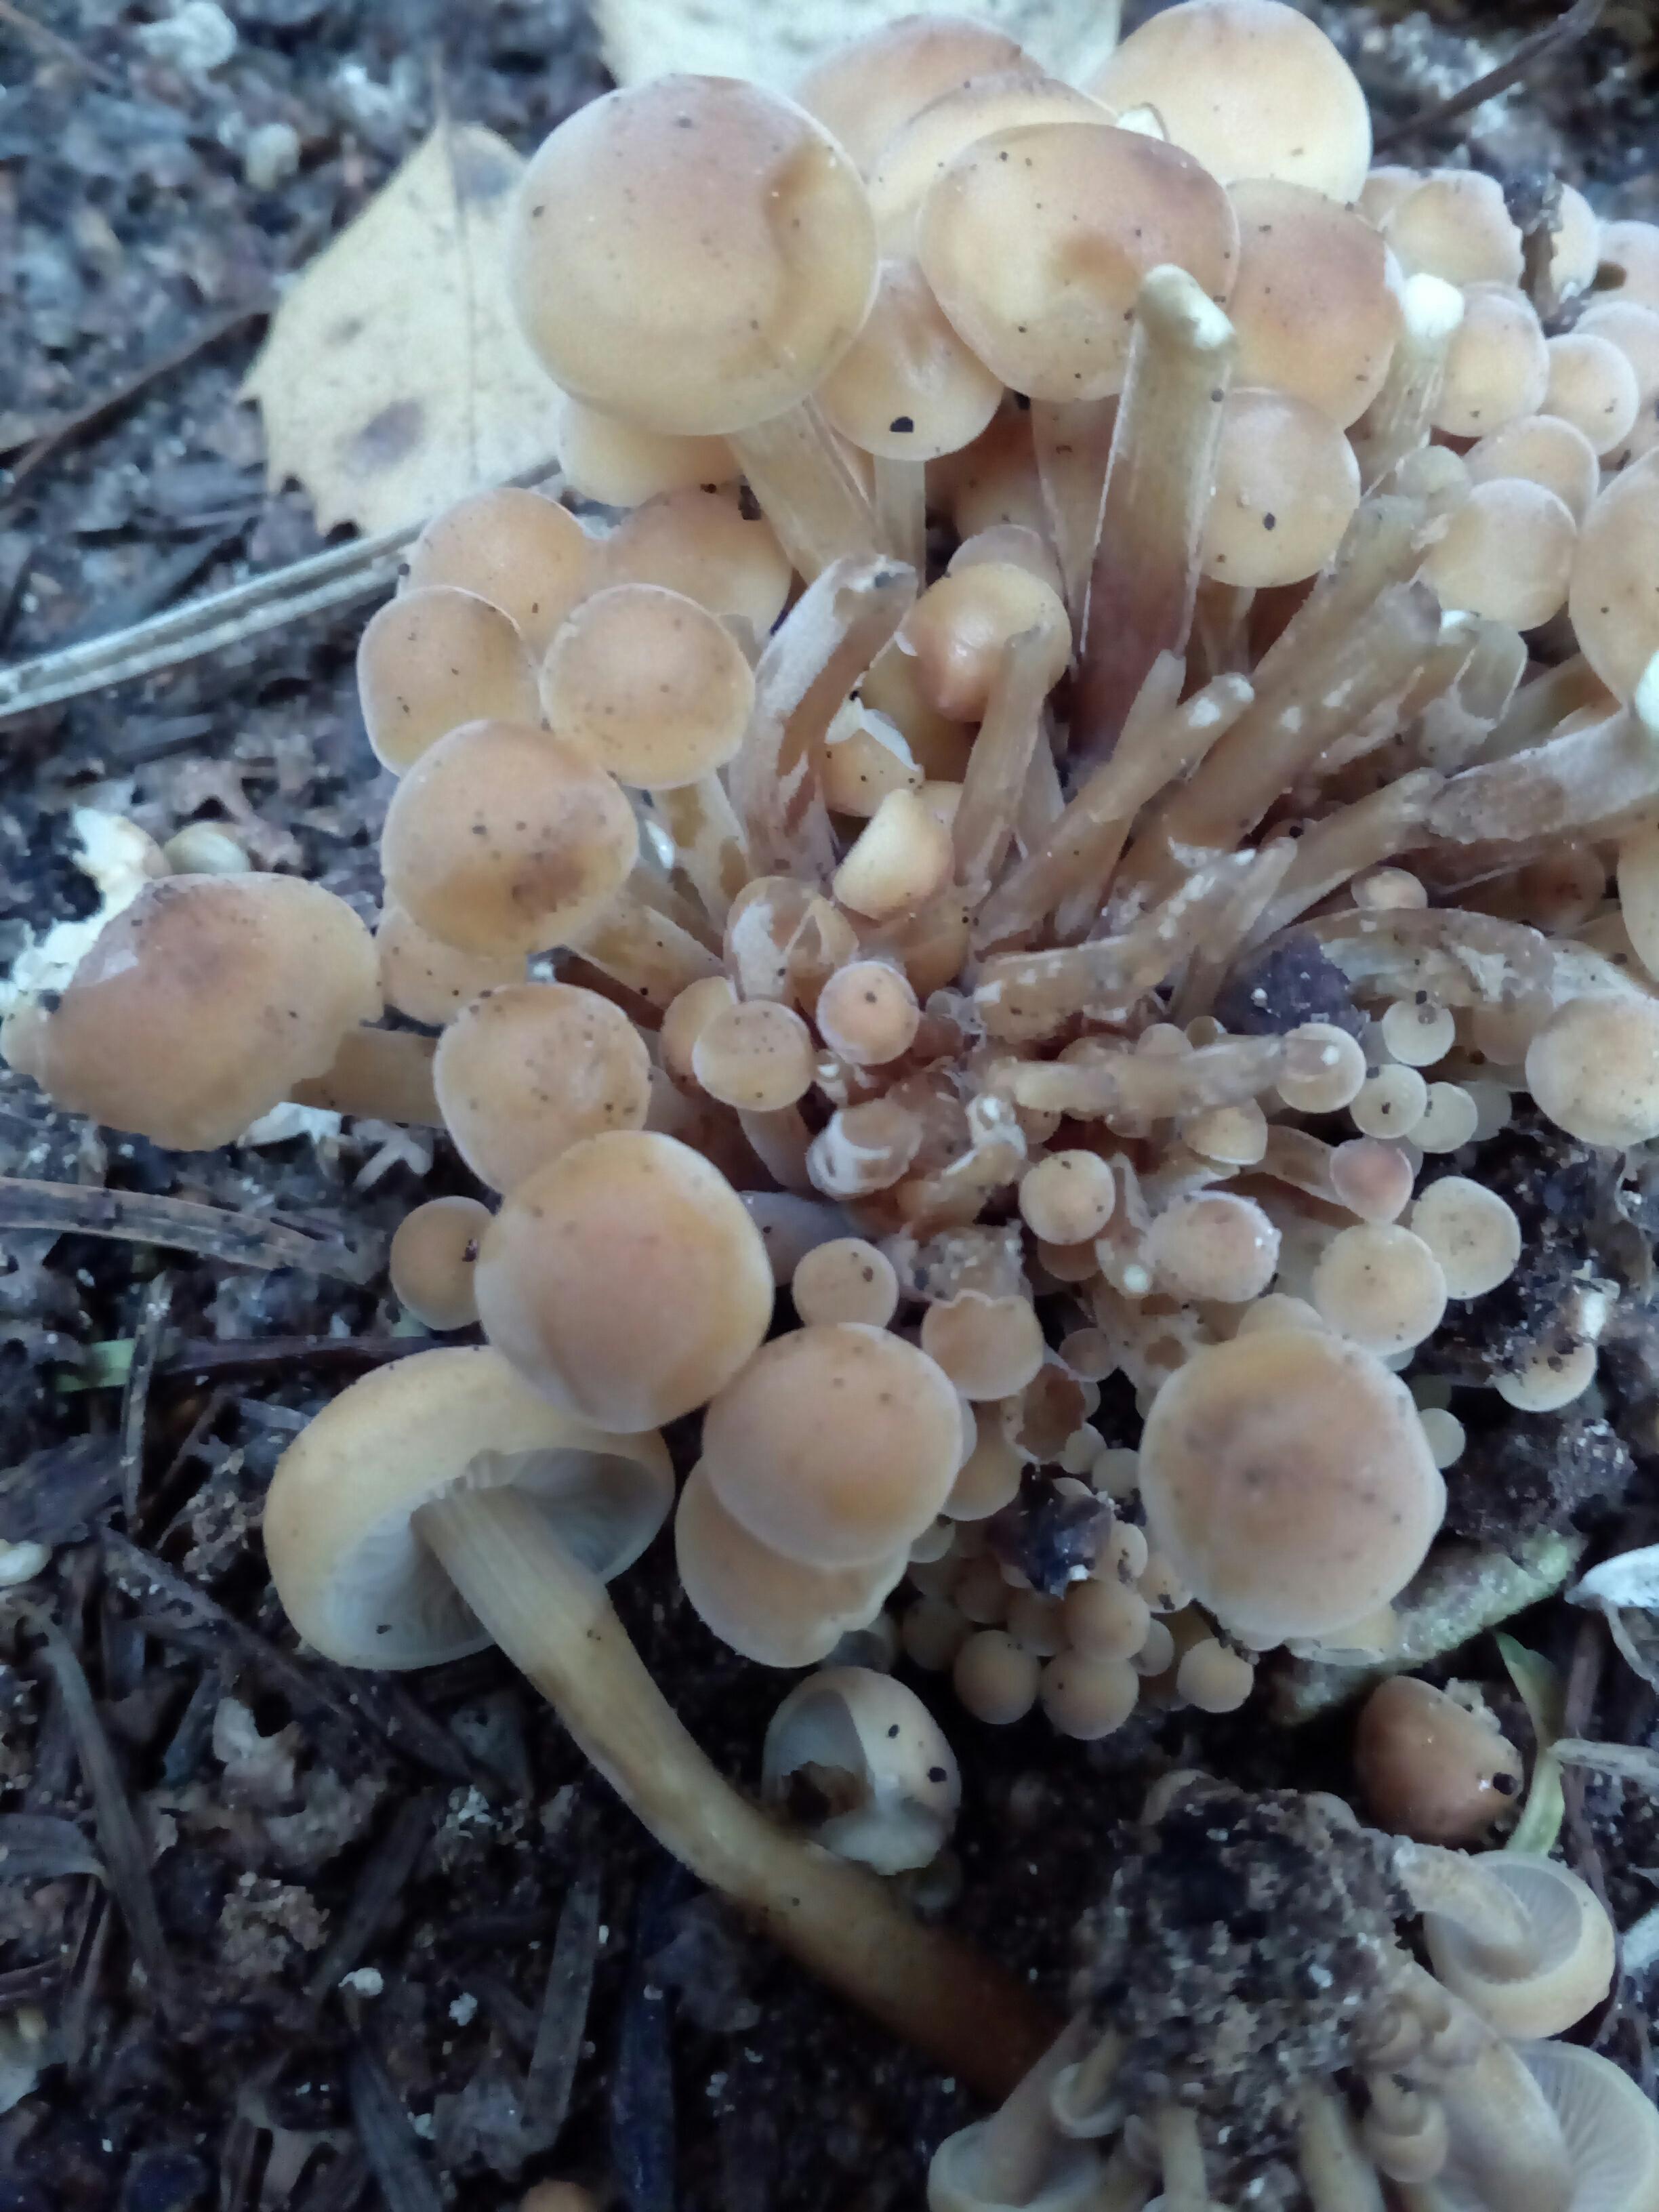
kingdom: Fungi
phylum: Basidiomycota
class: Agaricomycetes
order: Agaricales
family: Physalacriaceae
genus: Flammulina
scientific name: Flammulina velutipes
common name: gul fløjlsfod
